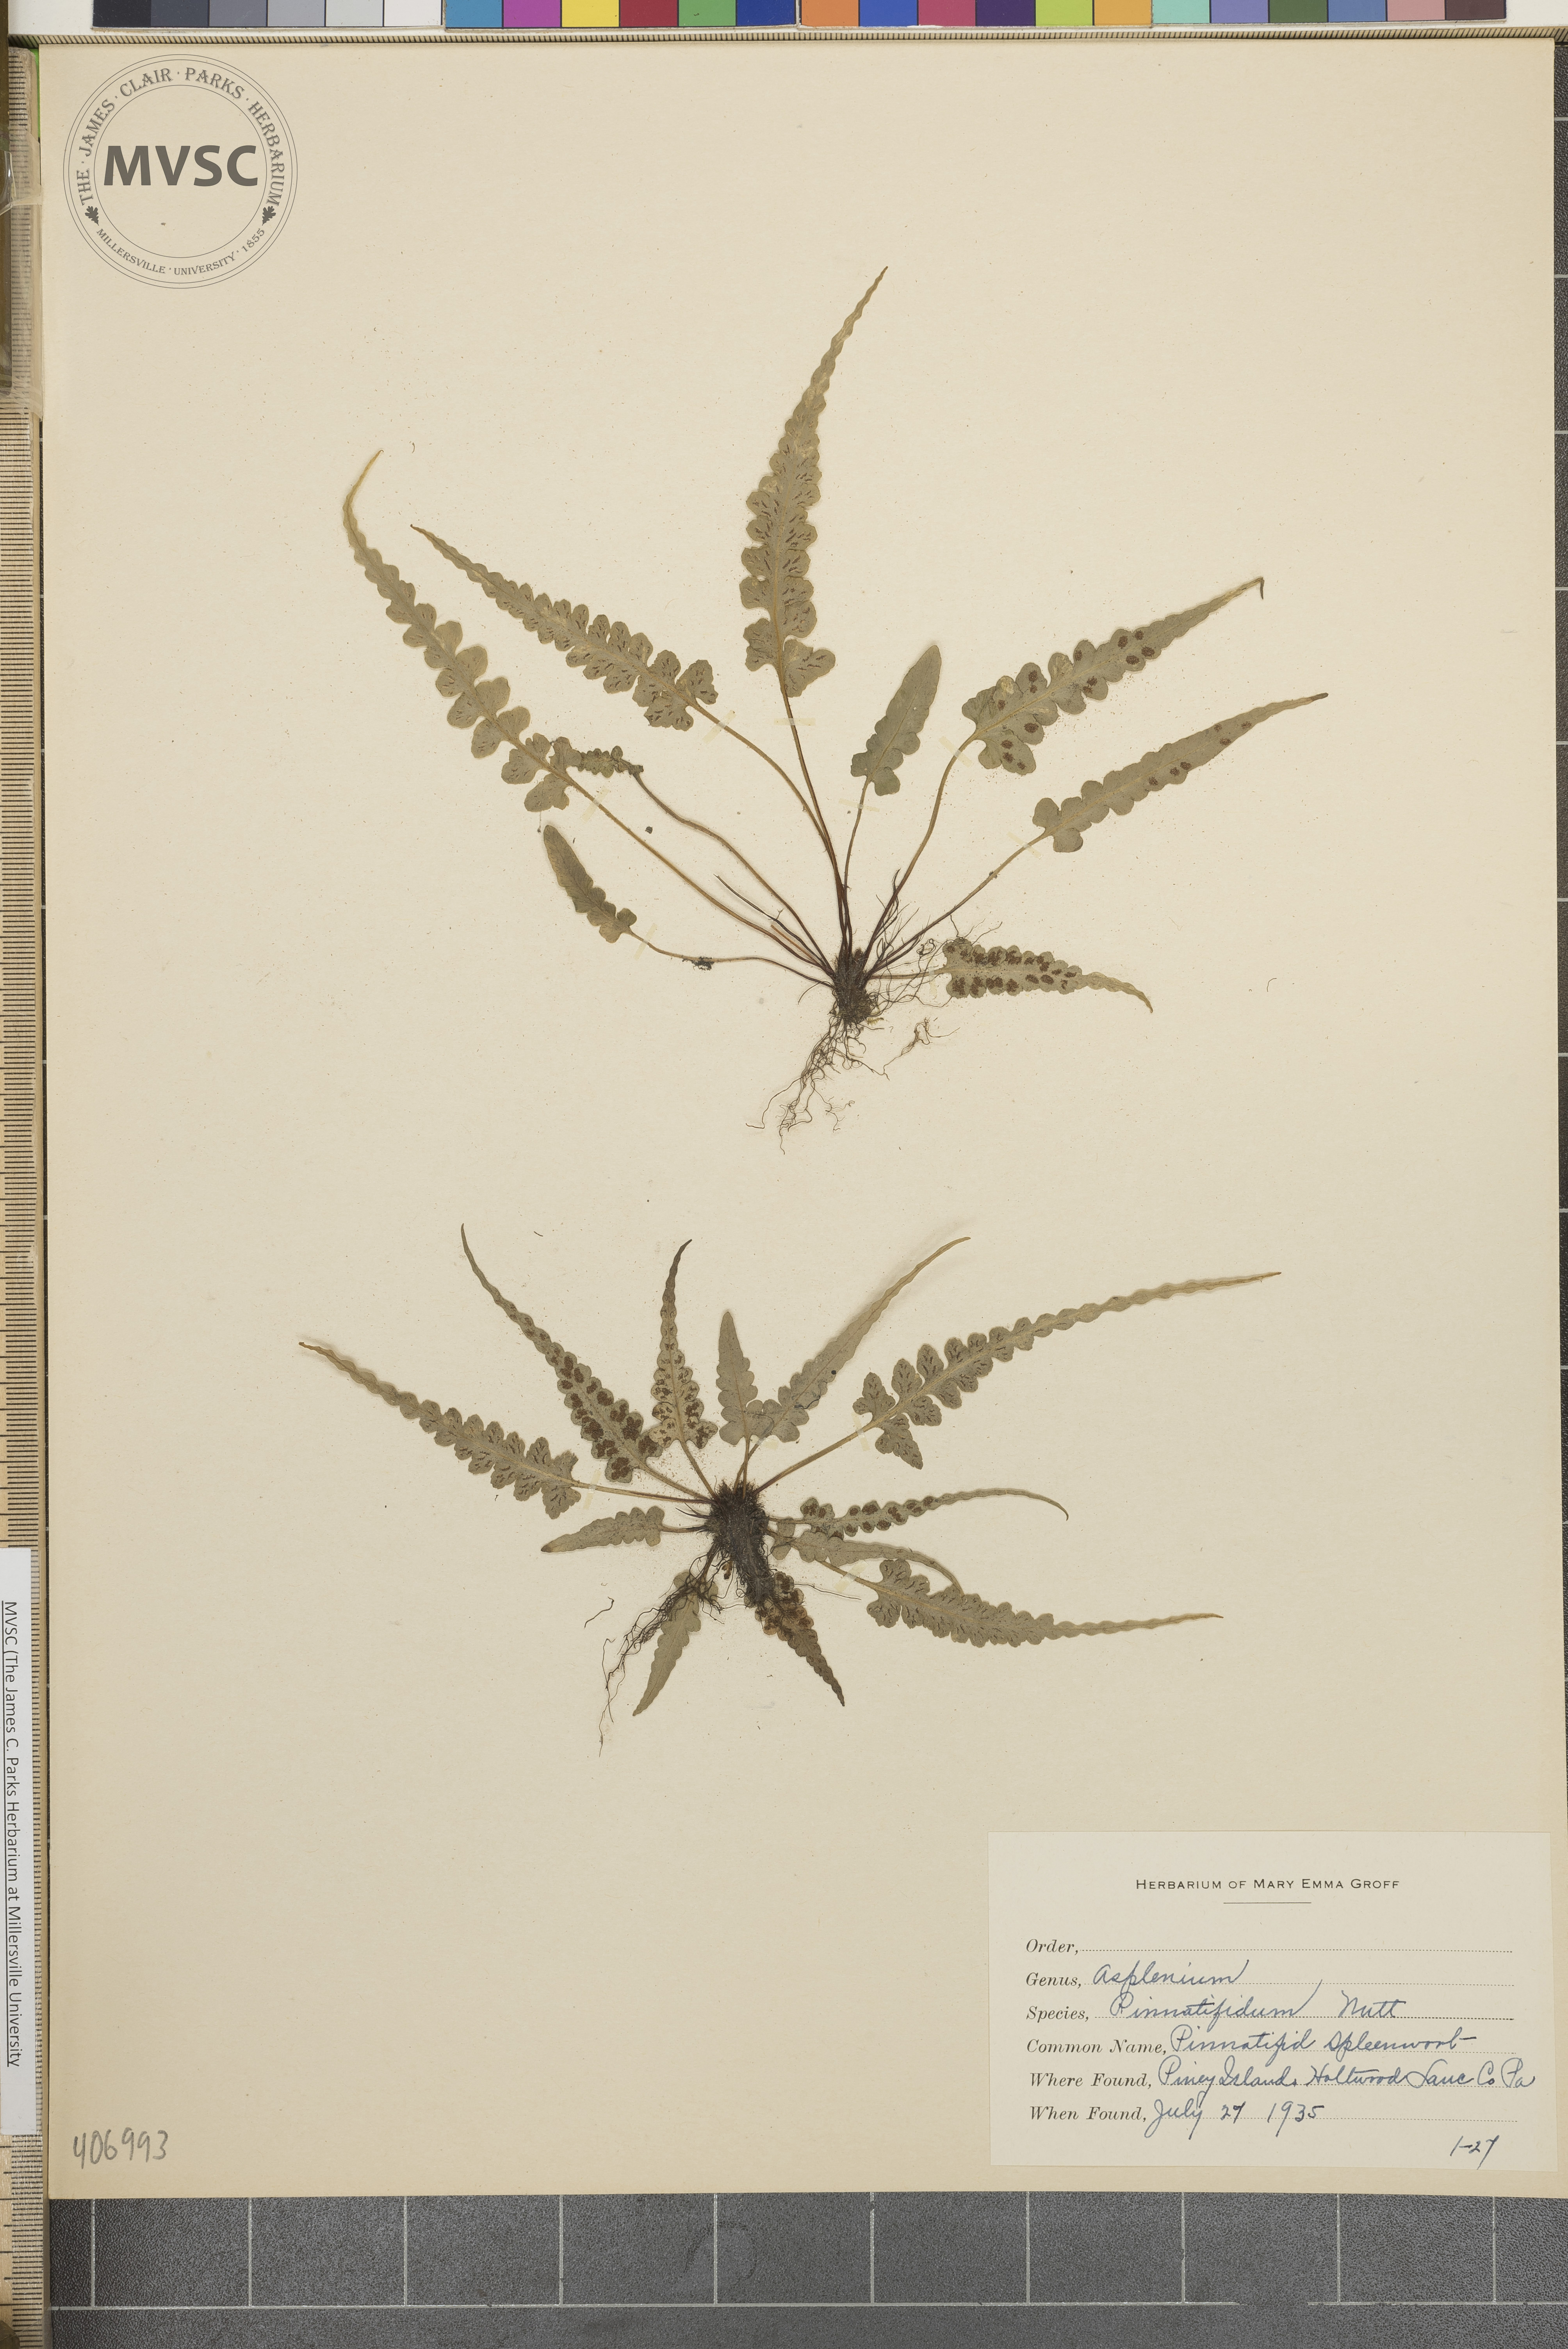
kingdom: Plantae
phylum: Tracheophyta
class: Polypodiopsida
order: Polypodiales
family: Aspleniaceae
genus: Asplenium
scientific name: Asplenium pinnatifidum
